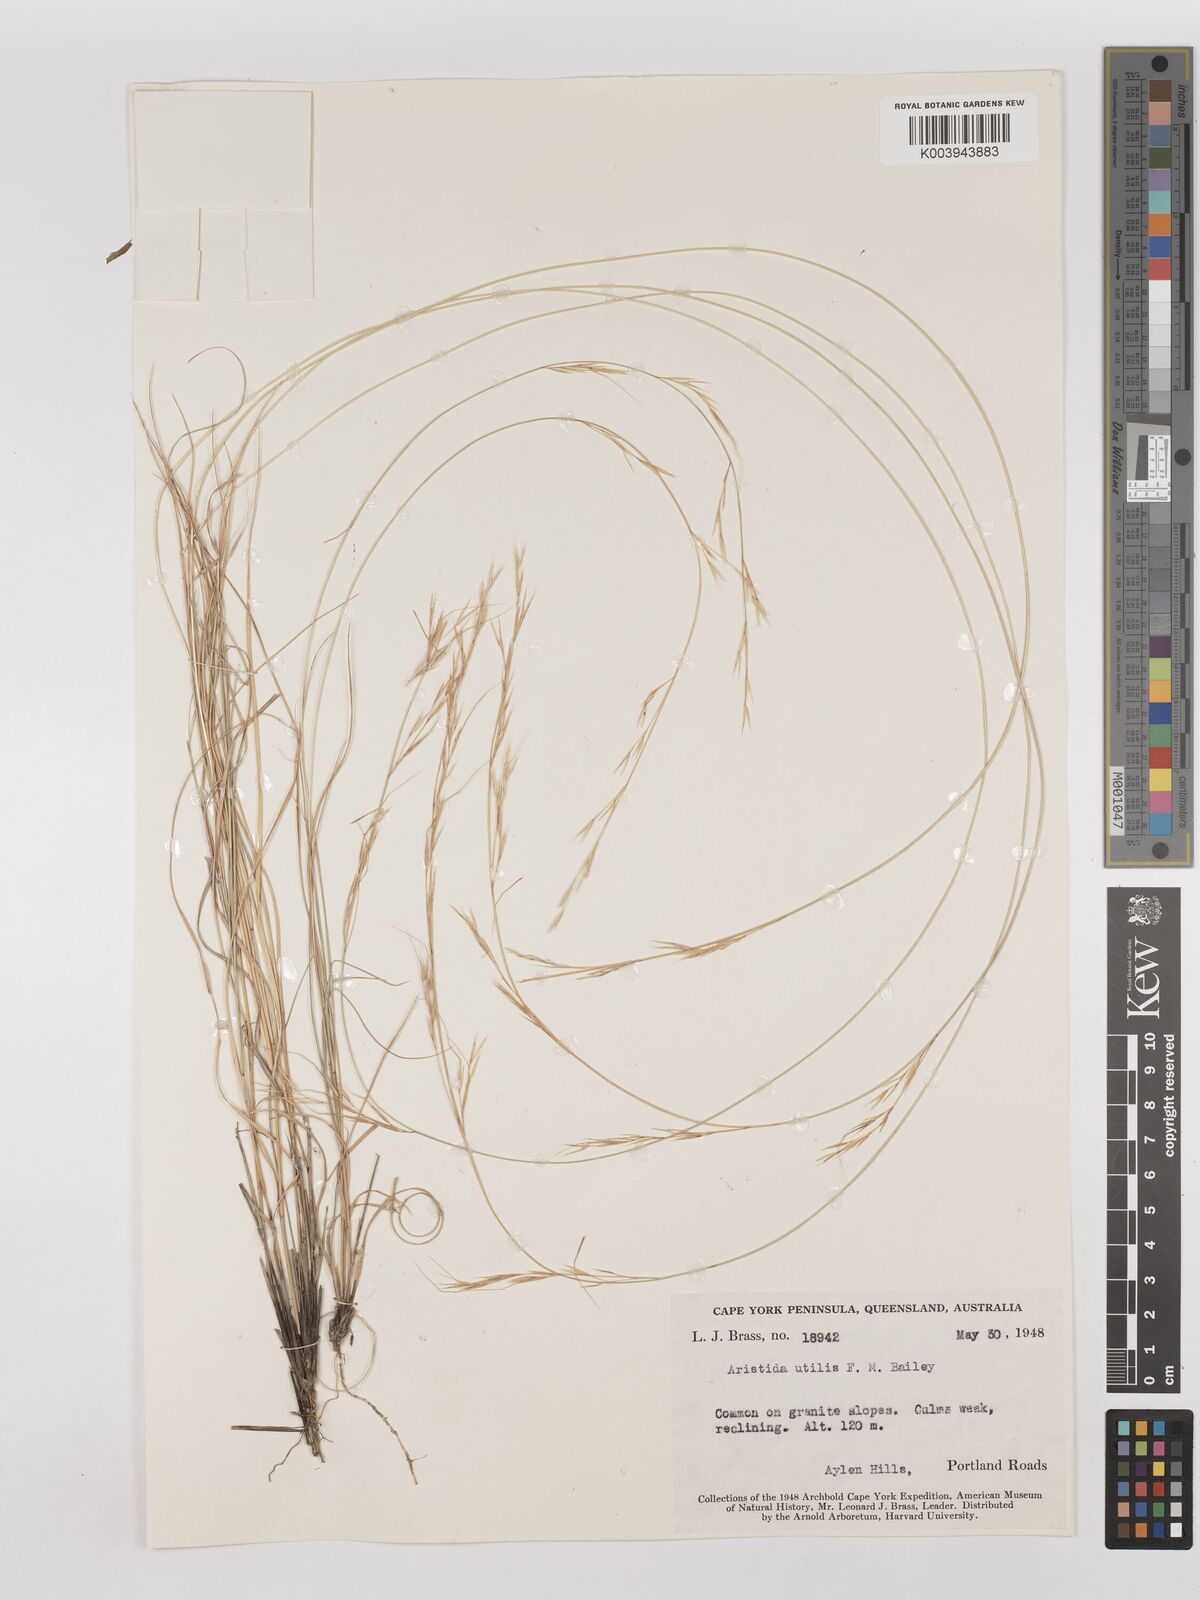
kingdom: Plantae
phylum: Tracheophyta
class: Liliopsida
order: Poales
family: Poaceae
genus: Aristida
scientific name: Aristida utilis
